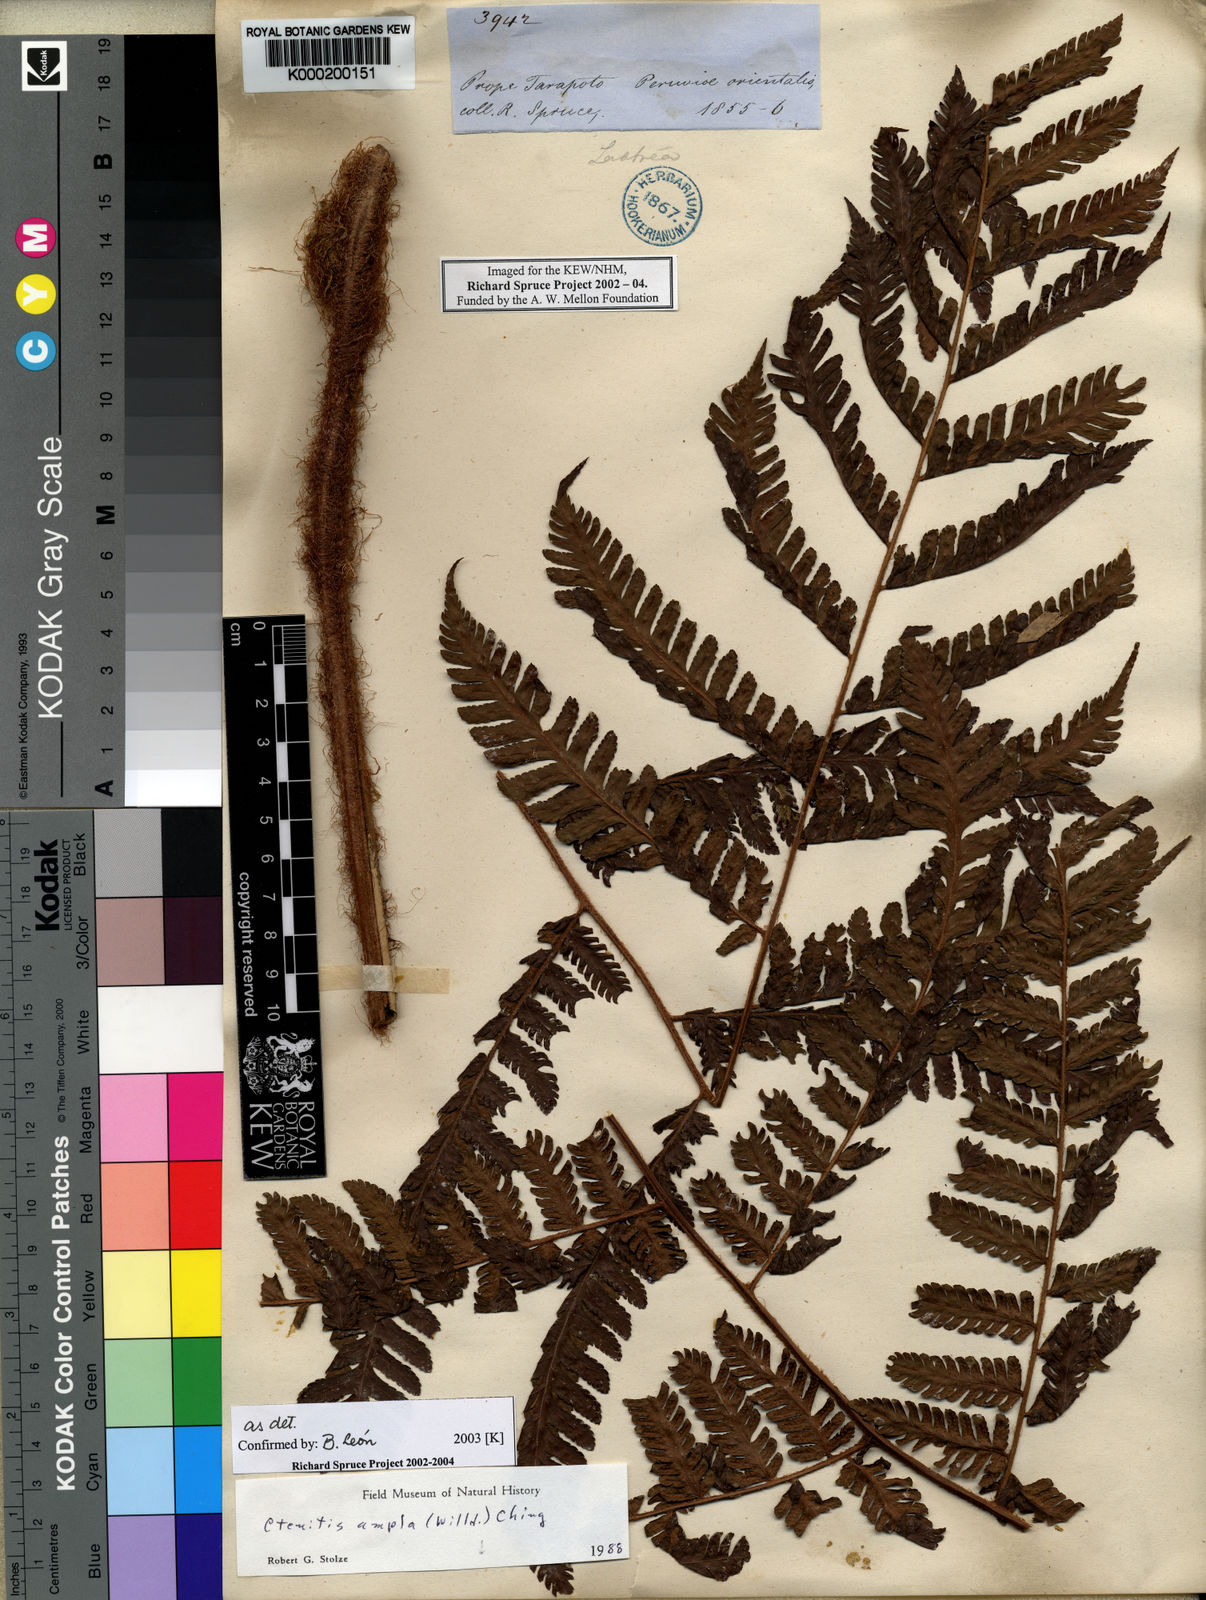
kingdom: Plantae
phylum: Tracheophyta
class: Polypodiopsida
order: Polypodiales
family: Dryopteridaceae
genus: Ctenitis
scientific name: Ctenitis sloanei
